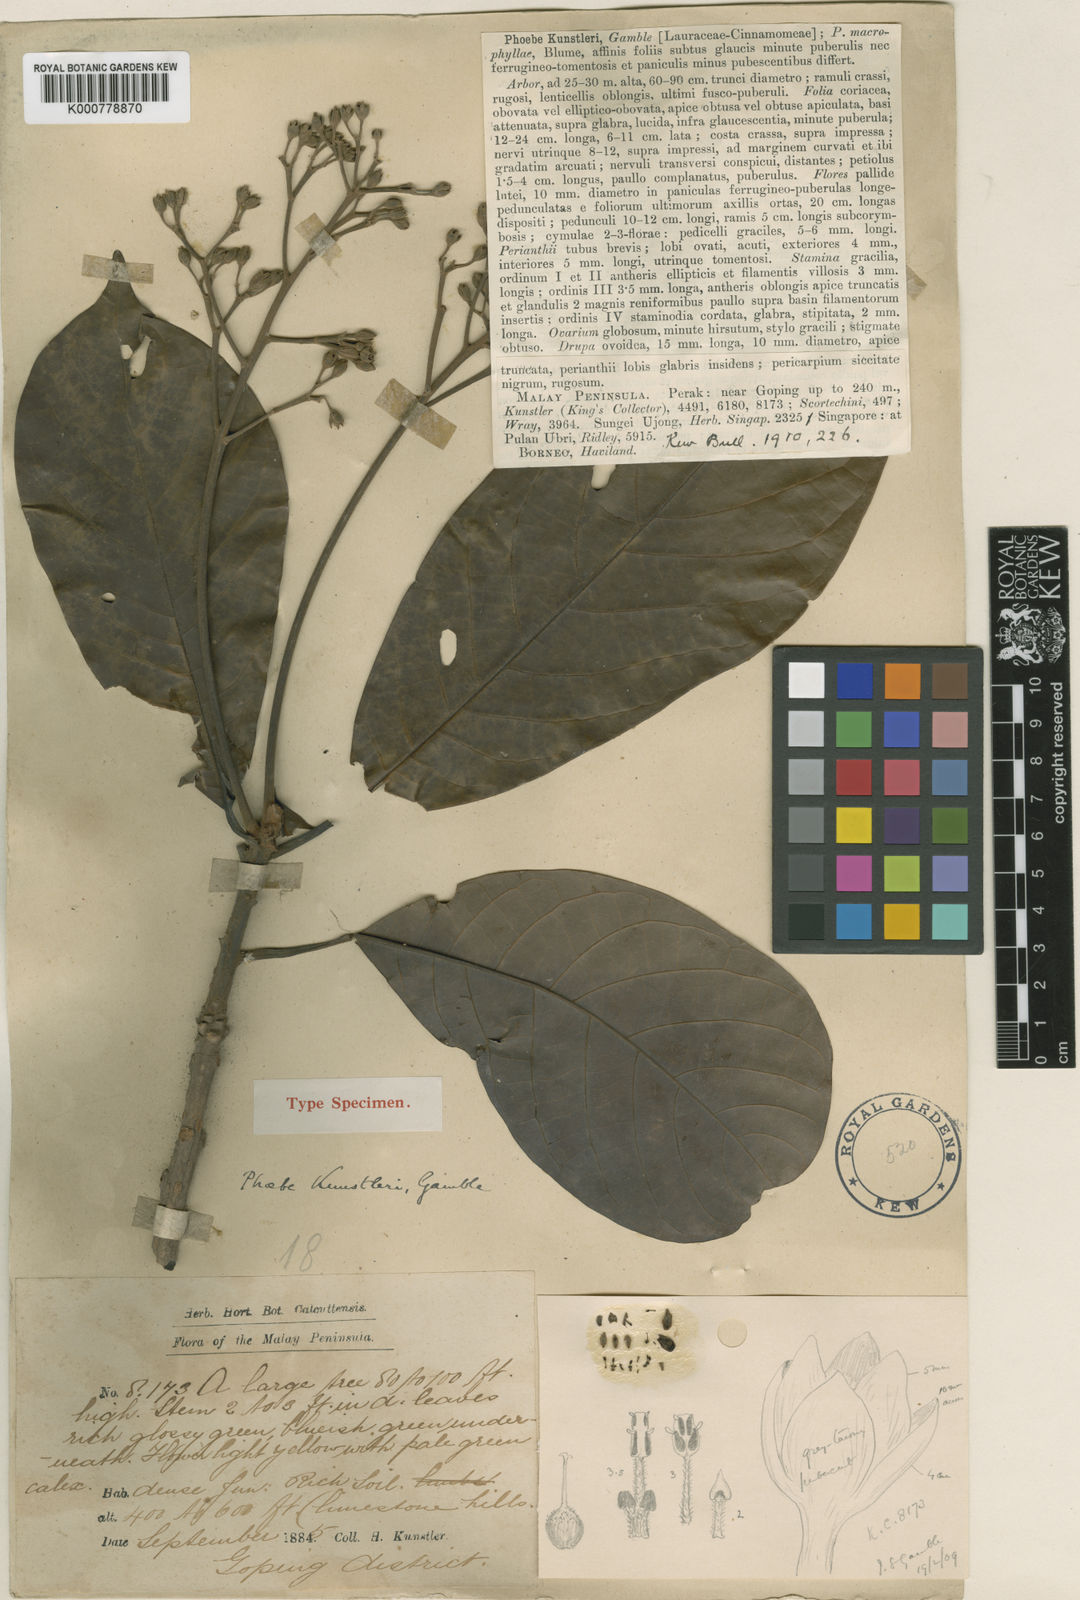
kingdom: Plantae
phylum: Tracheophyta
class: Magnoliopsida
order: Laurales
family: Lauraceae
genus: Phoebe
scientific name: Phoebe kunstleri
